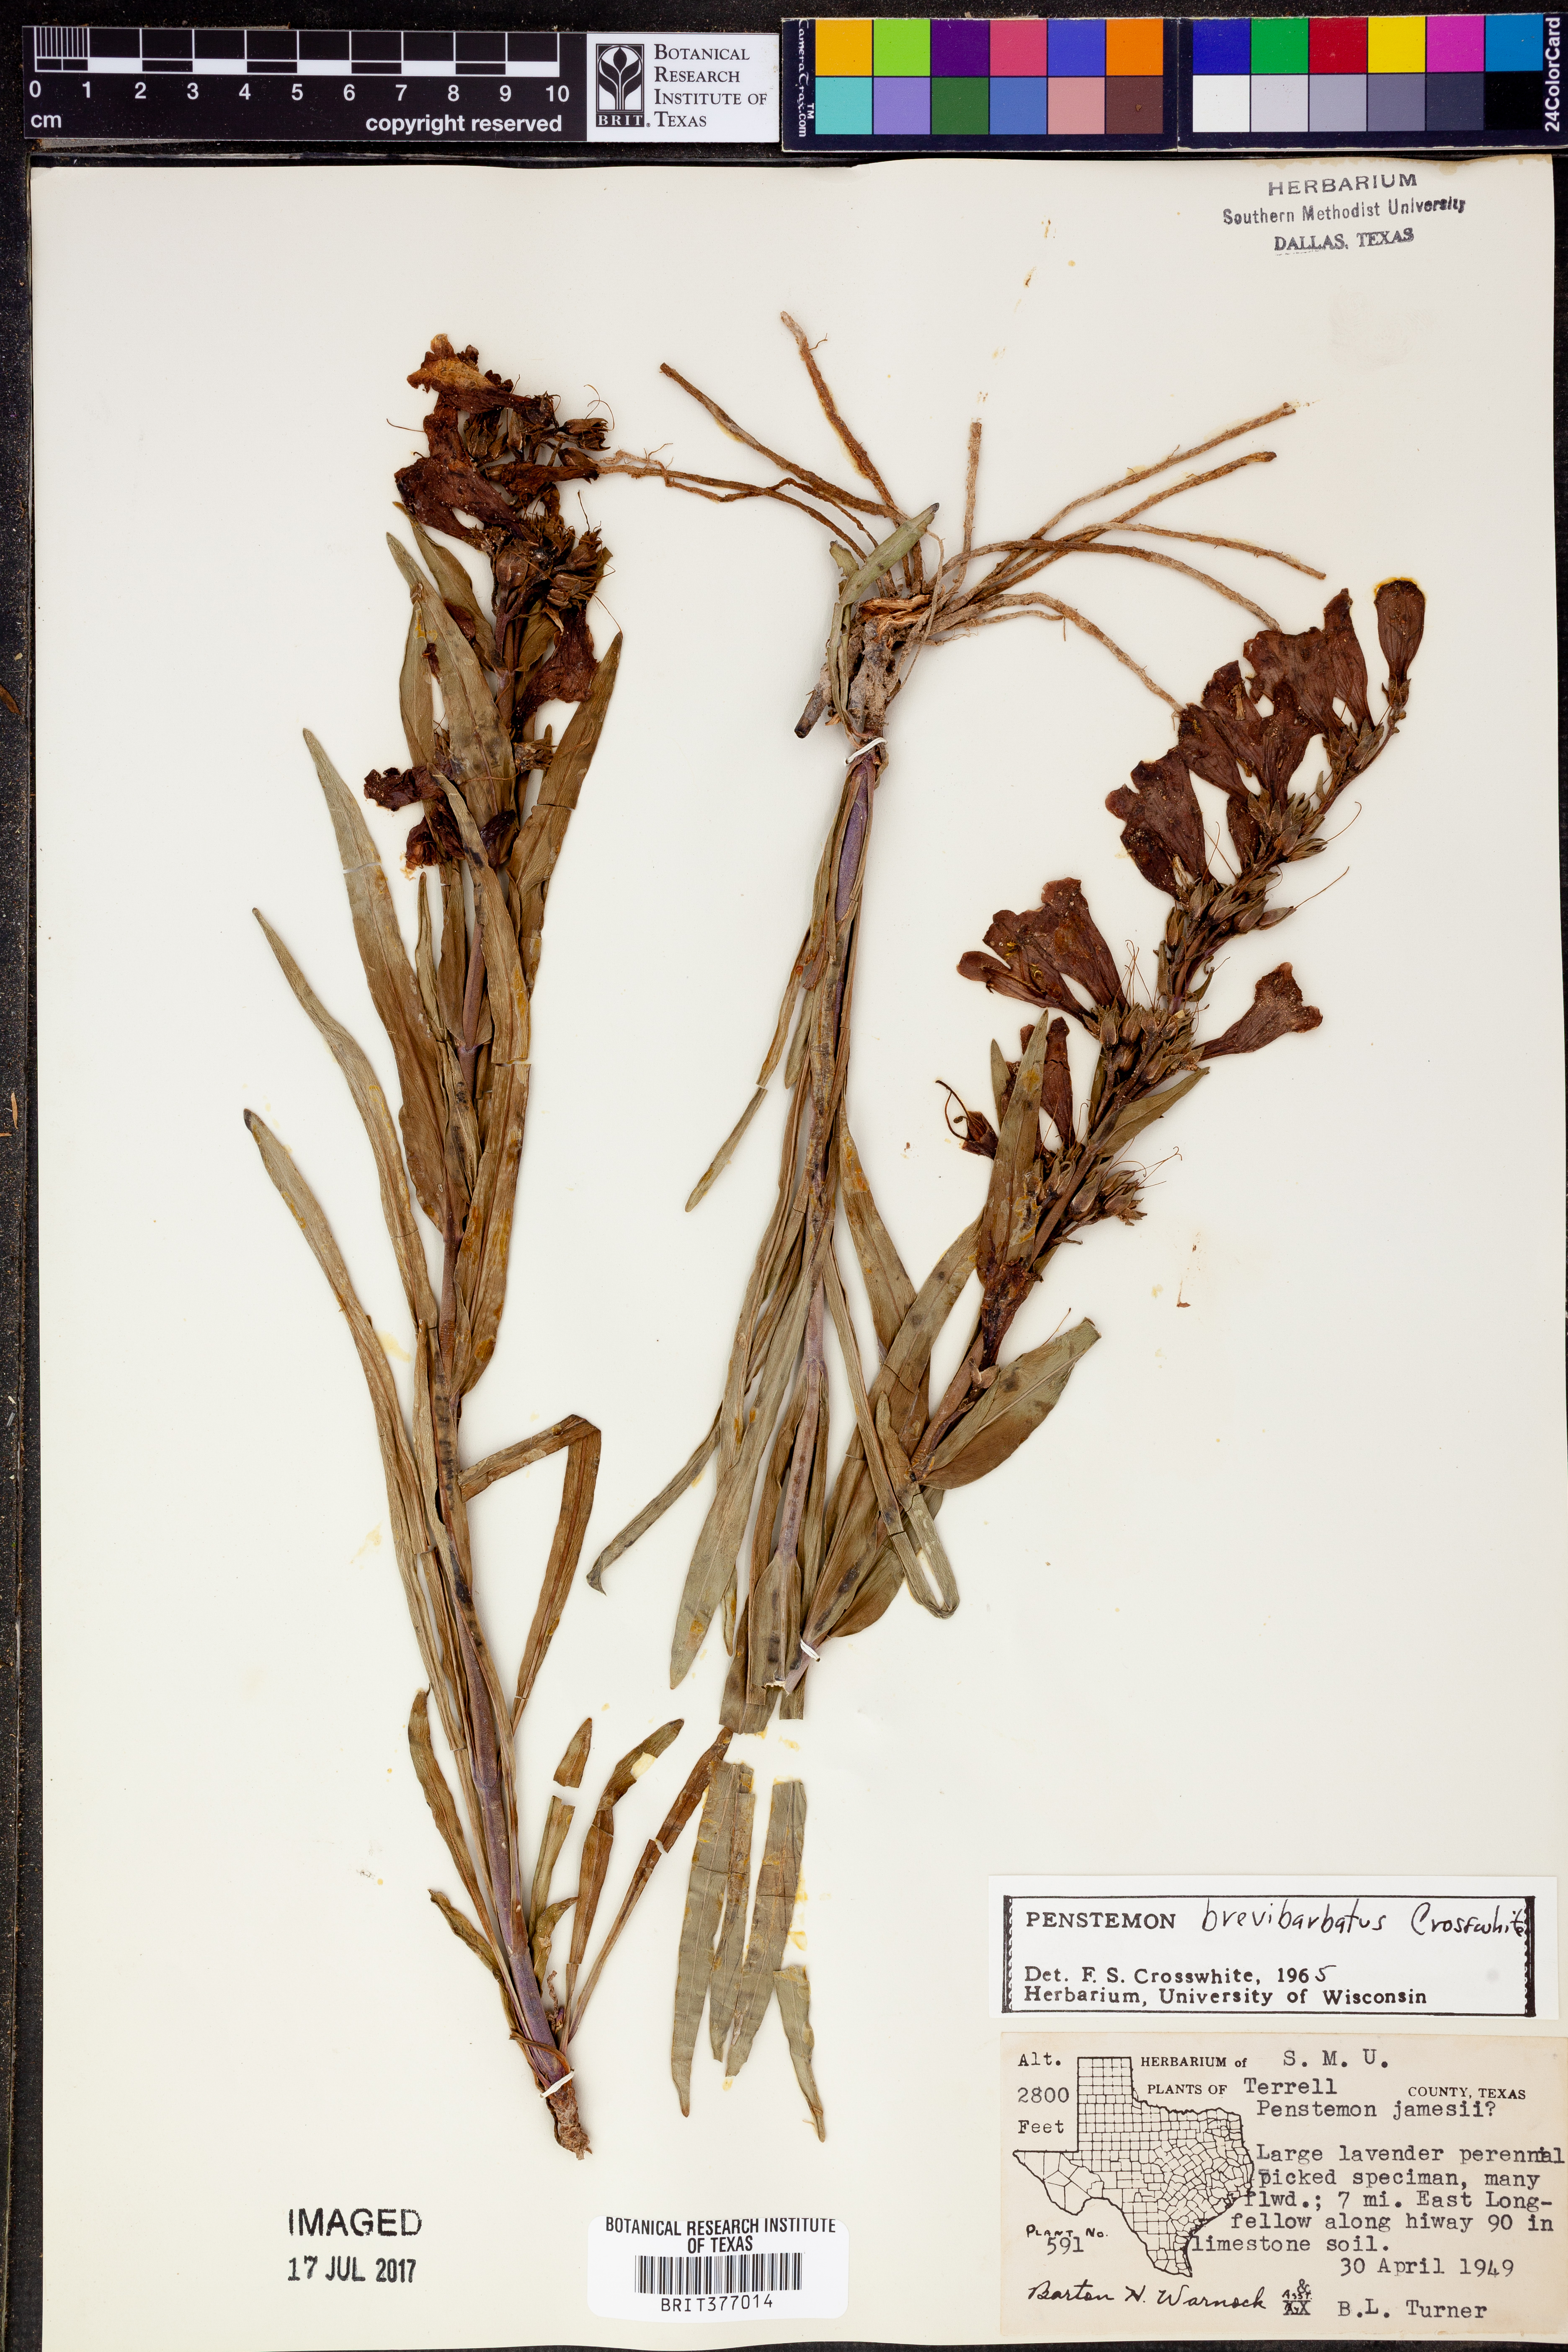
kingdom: Plantae
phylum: Tracheophyta
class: Magnoliopsida
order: Lamiales
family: Plantaginaceae
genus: Penstemon
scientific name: Penstemon brevibarbatus
